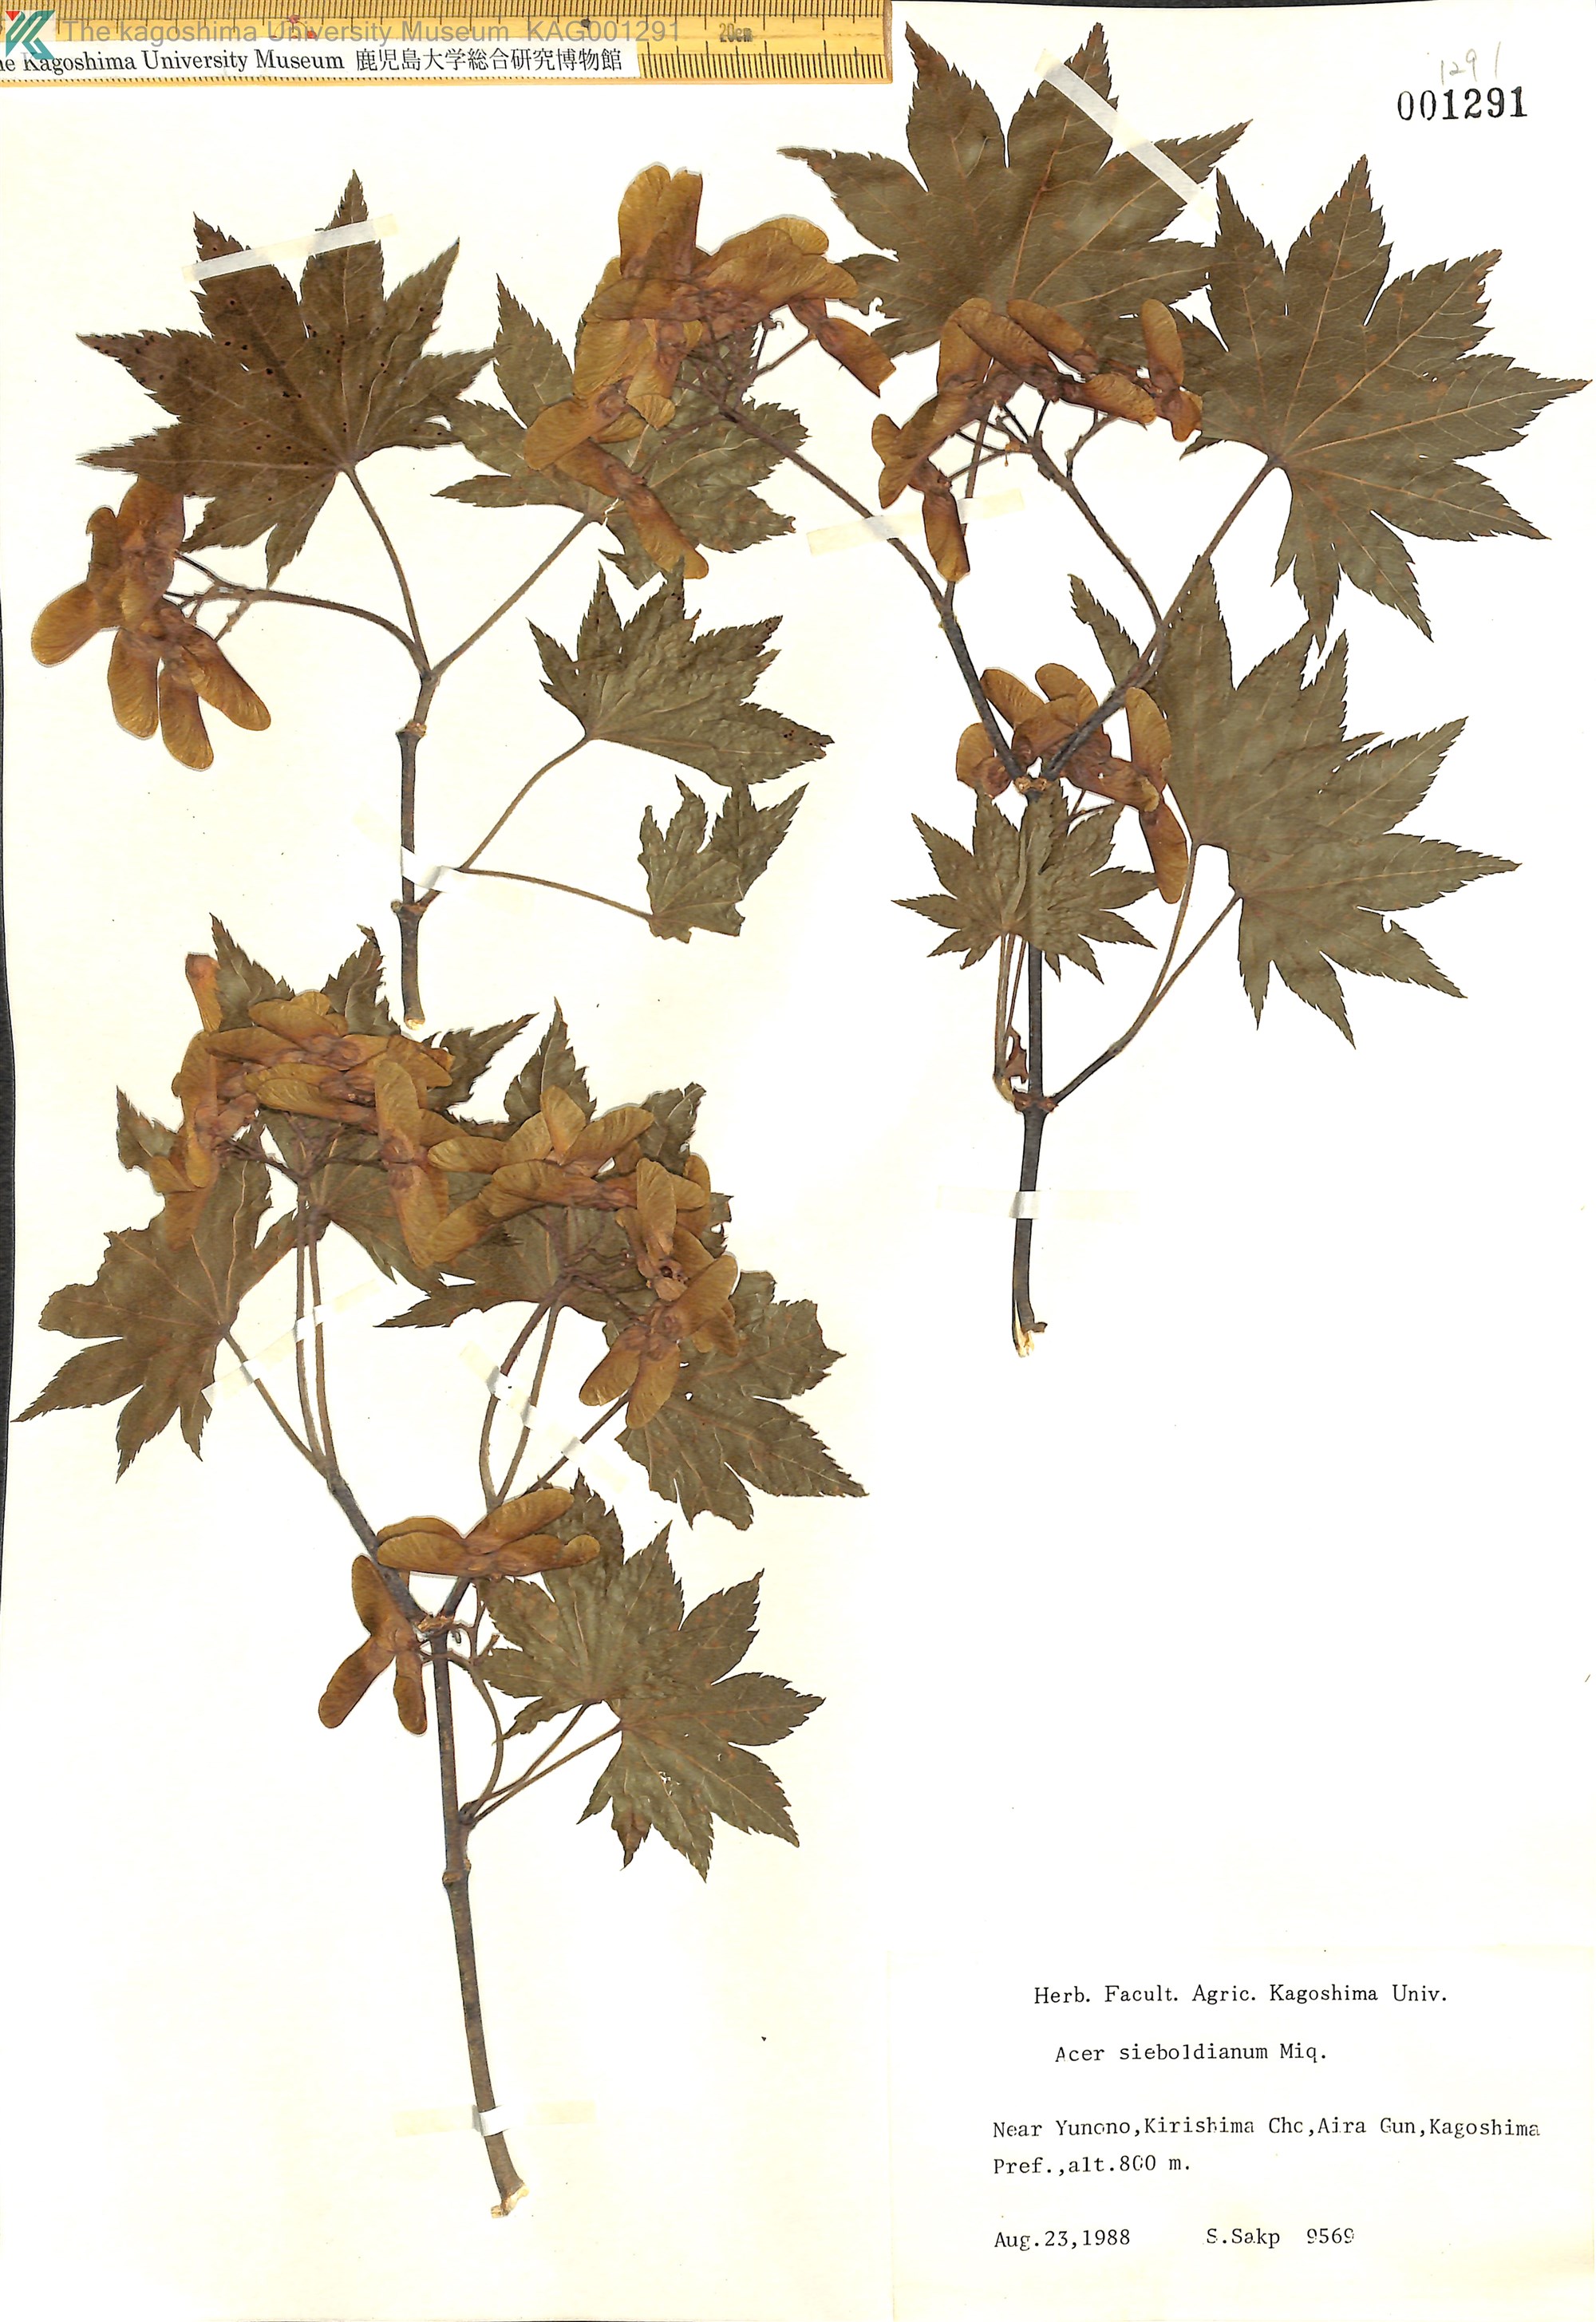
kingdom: Plantae
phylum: Tracheophyta
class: Magnoliopsida
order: Sapindales
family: Sapindaceae
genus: Acer
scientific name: Acer sieboldianum
